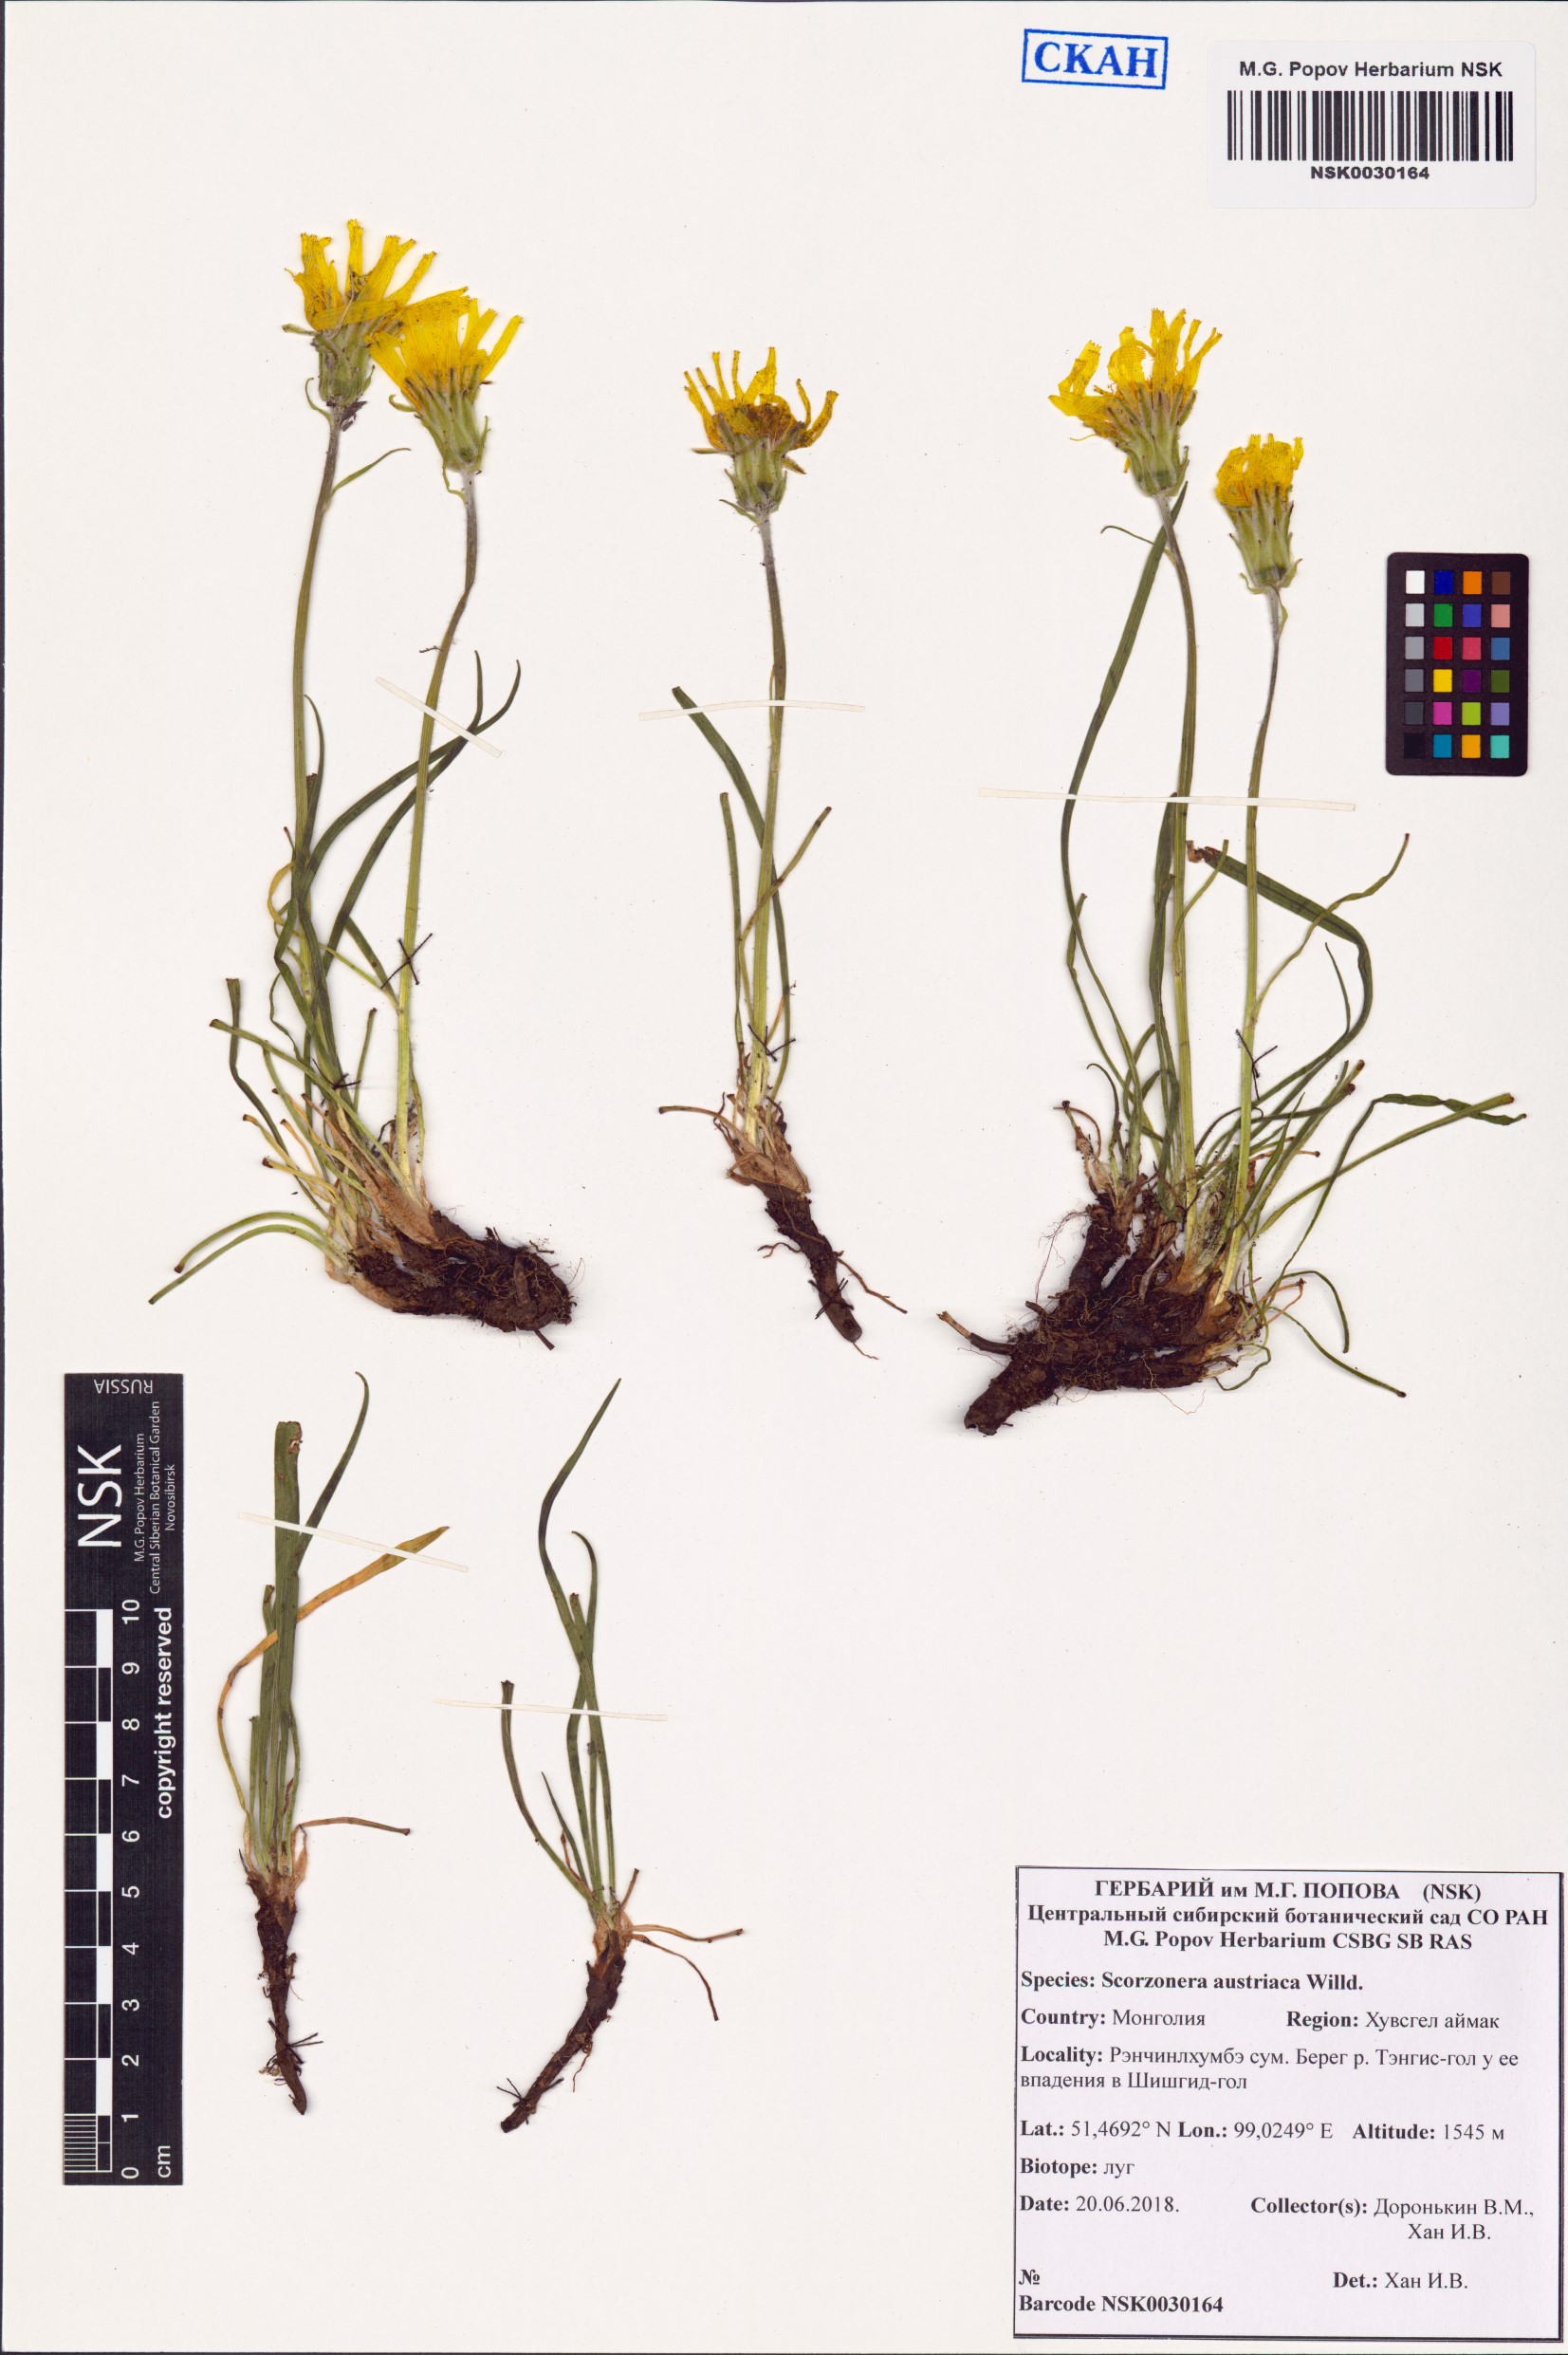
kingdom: Plantae
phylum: Tracheophyta
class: Magnoliopsida
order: Asterales
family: Asteraceae
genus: Takhtajaniantha
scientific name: Takhtajaniantha austriaca
